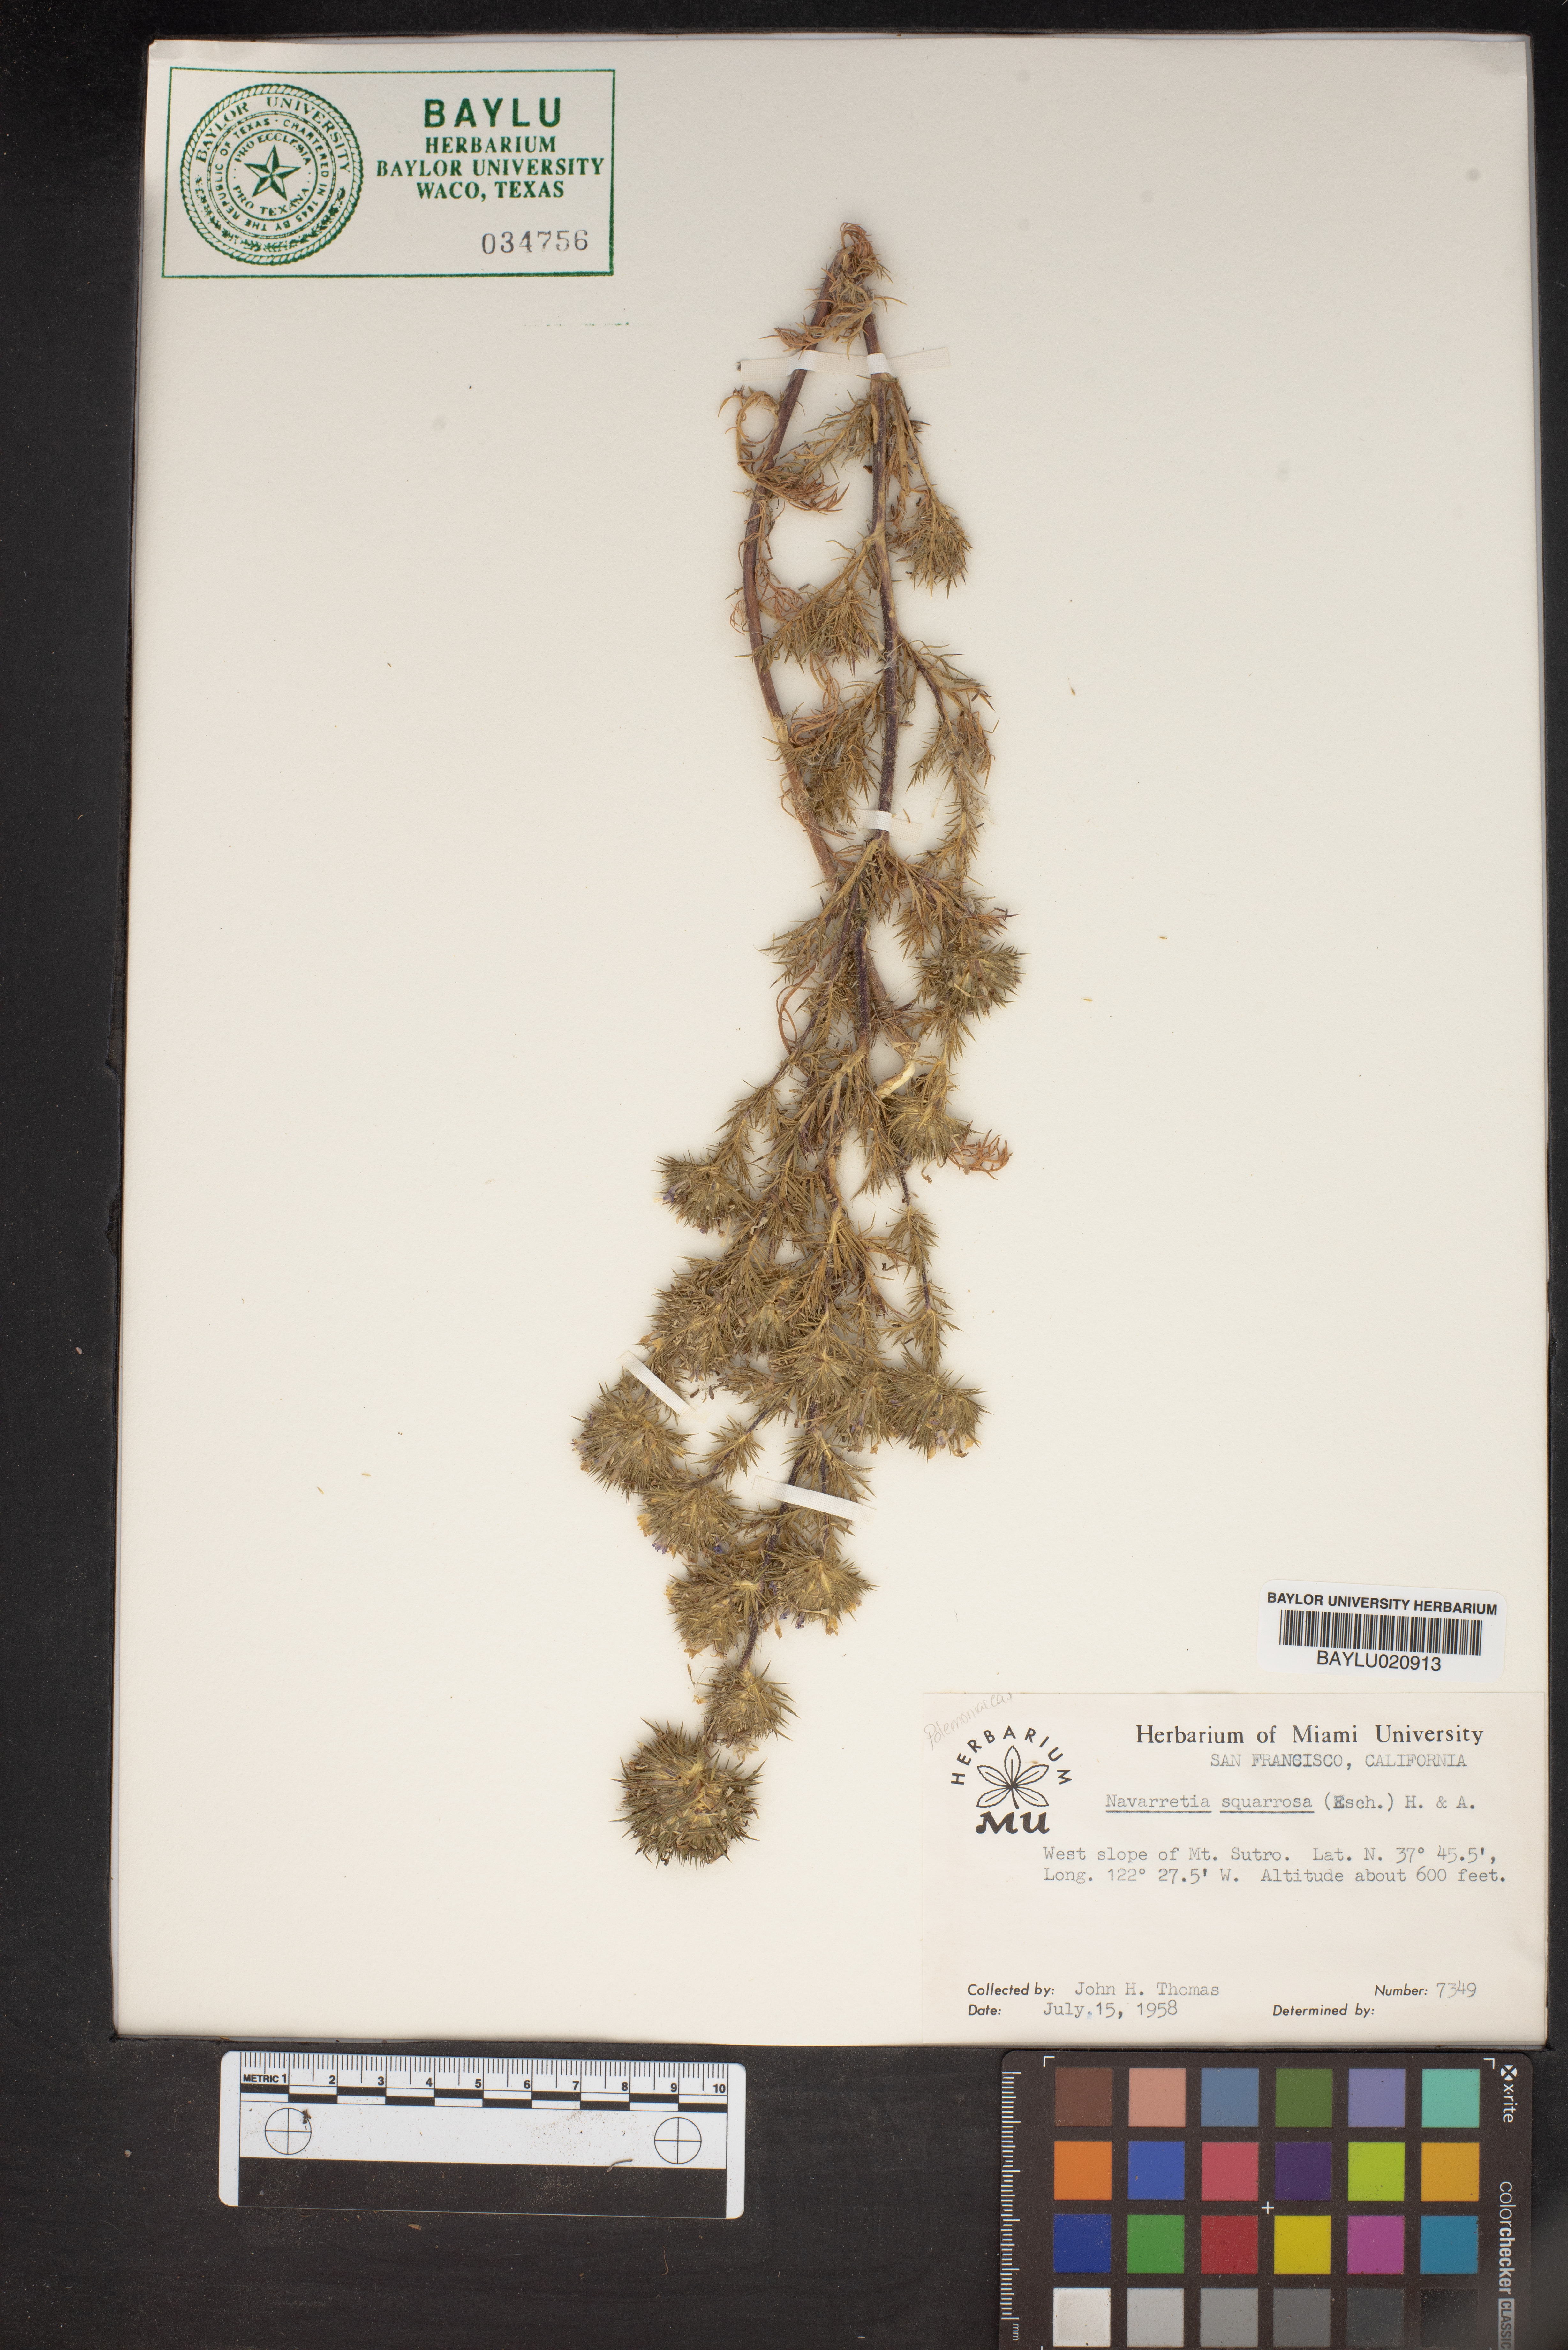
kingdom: Plantae
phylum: Tracheophyta
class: Magnoliopsida
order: Ericales
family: Polemoniaceae
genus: Navarretia
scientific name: Navarretia squarrosa
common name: Skunkweed
